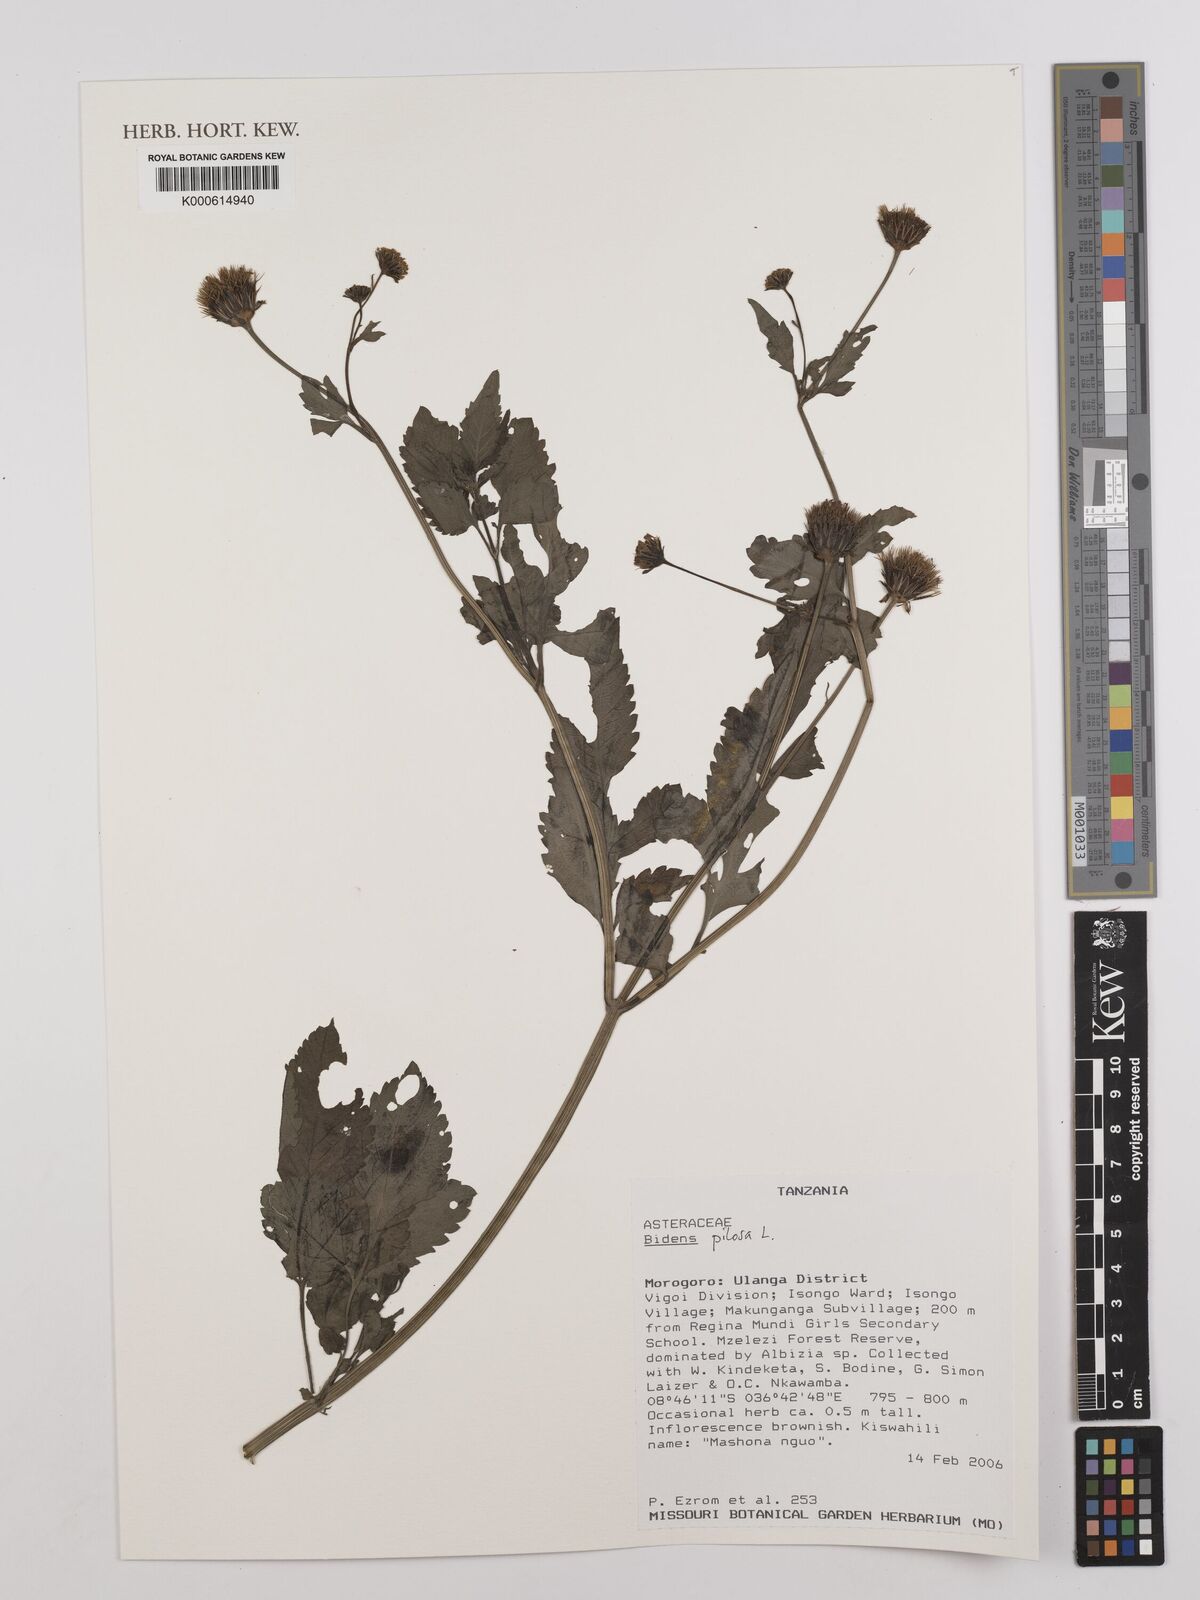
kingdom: Plantae
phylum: Tracheophyta
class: Magnoliopsida
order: Asterales
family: Asteraceae
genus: Bidens
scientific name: Bidens pilosa
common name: Black-jack
